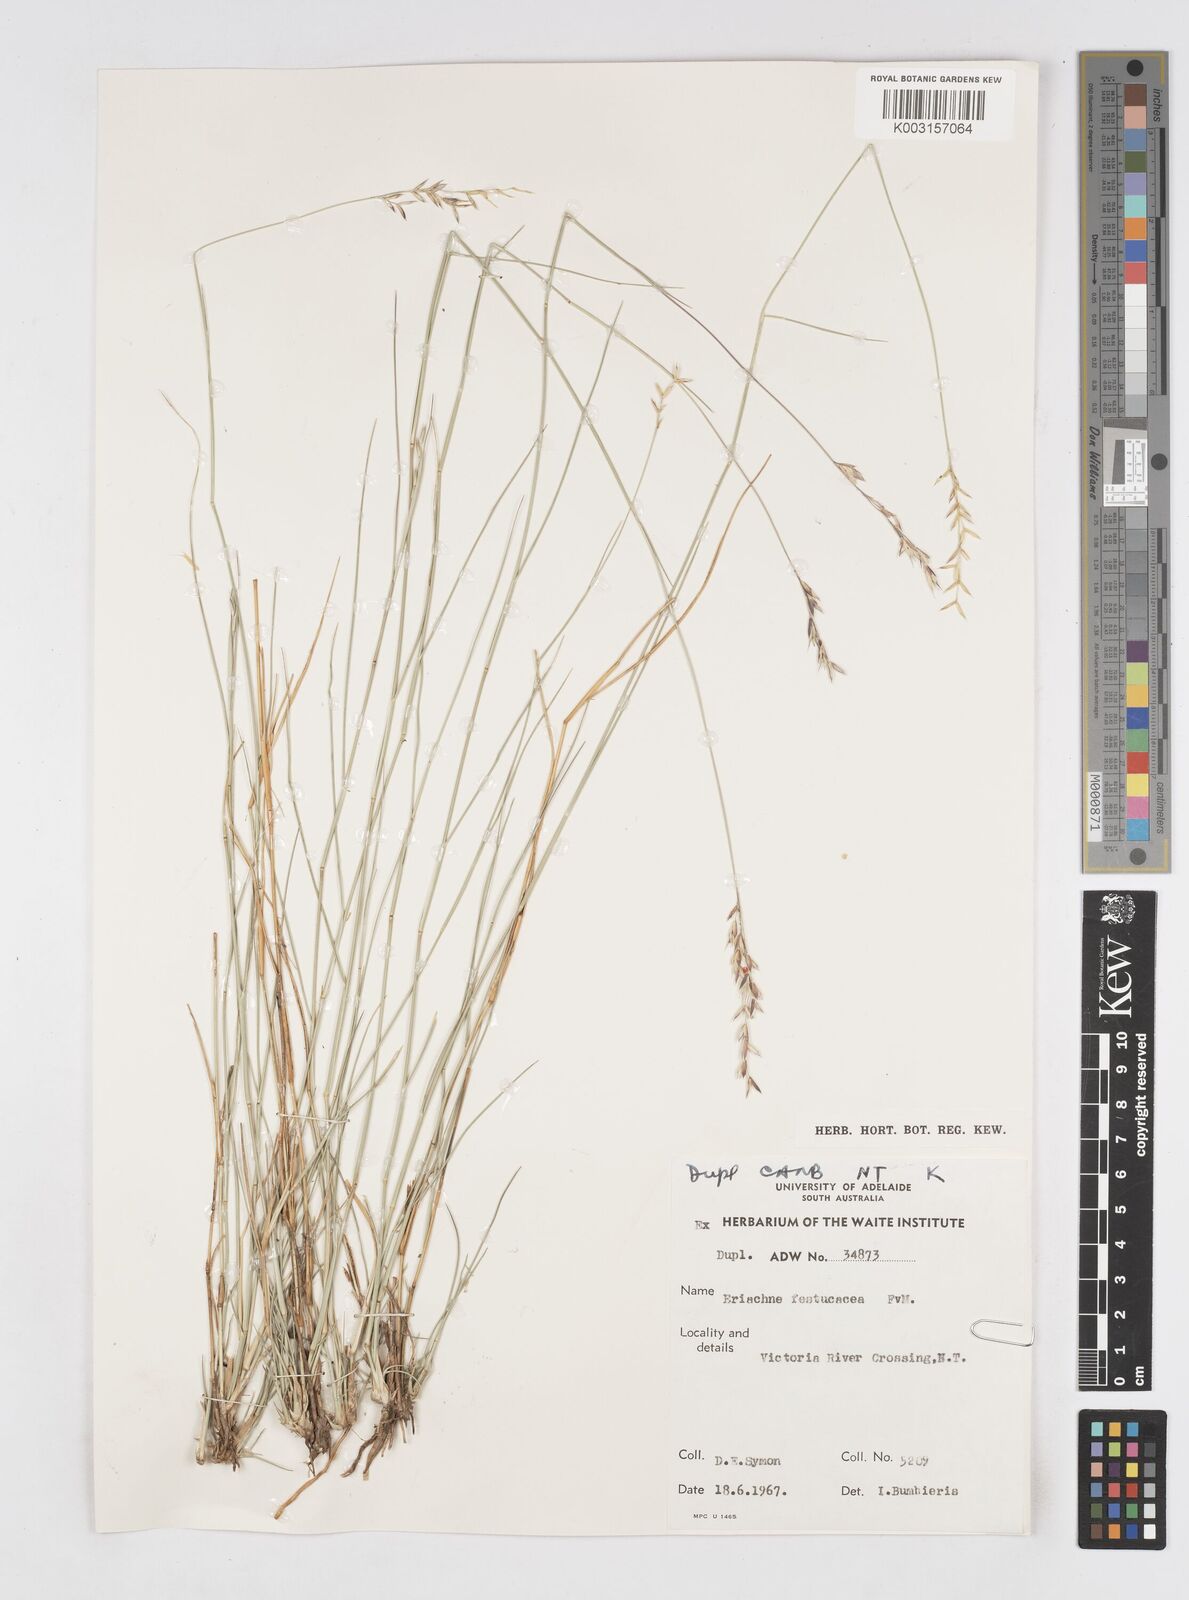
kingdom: Plantae
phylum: Tracheophyta
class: Liliopsida
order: Poales
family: Poaceae
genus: Eriachne
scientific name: Eriachne festucacea
